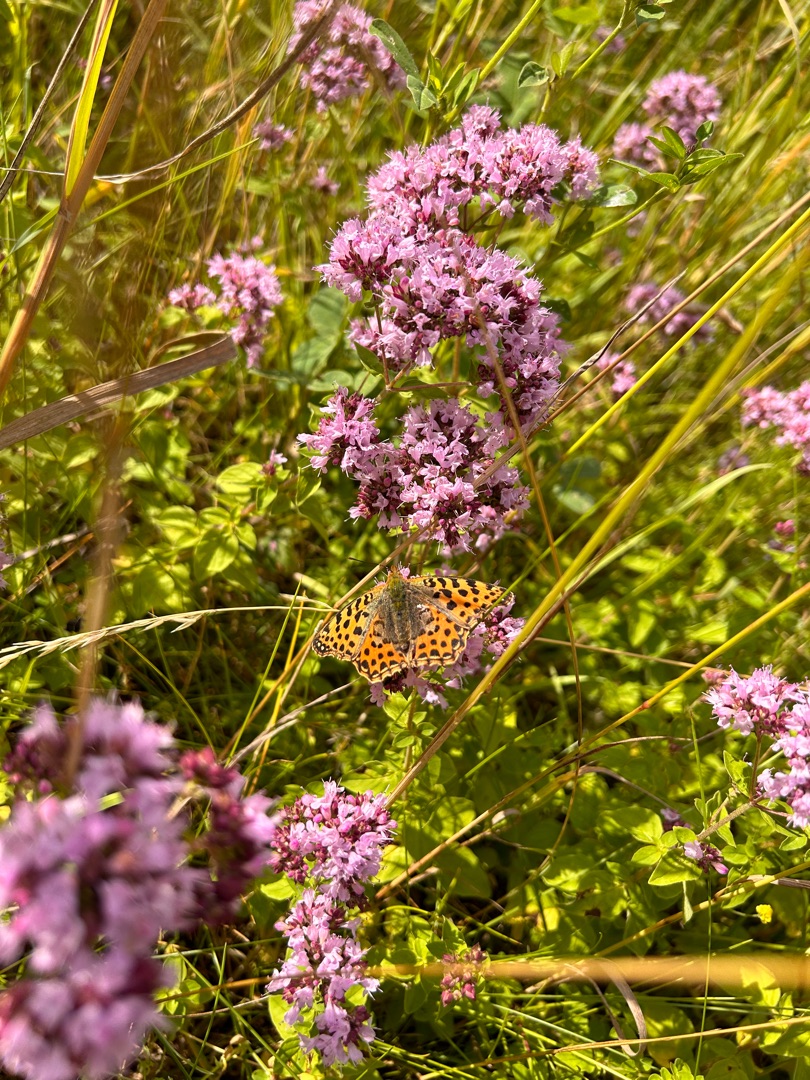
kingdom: Animalia
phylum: Arthropoda
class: Insecta
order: Lepidoptera
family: Nymphalidae
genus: Issoria
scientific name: Issoria lathonia
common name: Storplettet perlemorsommerfugl
